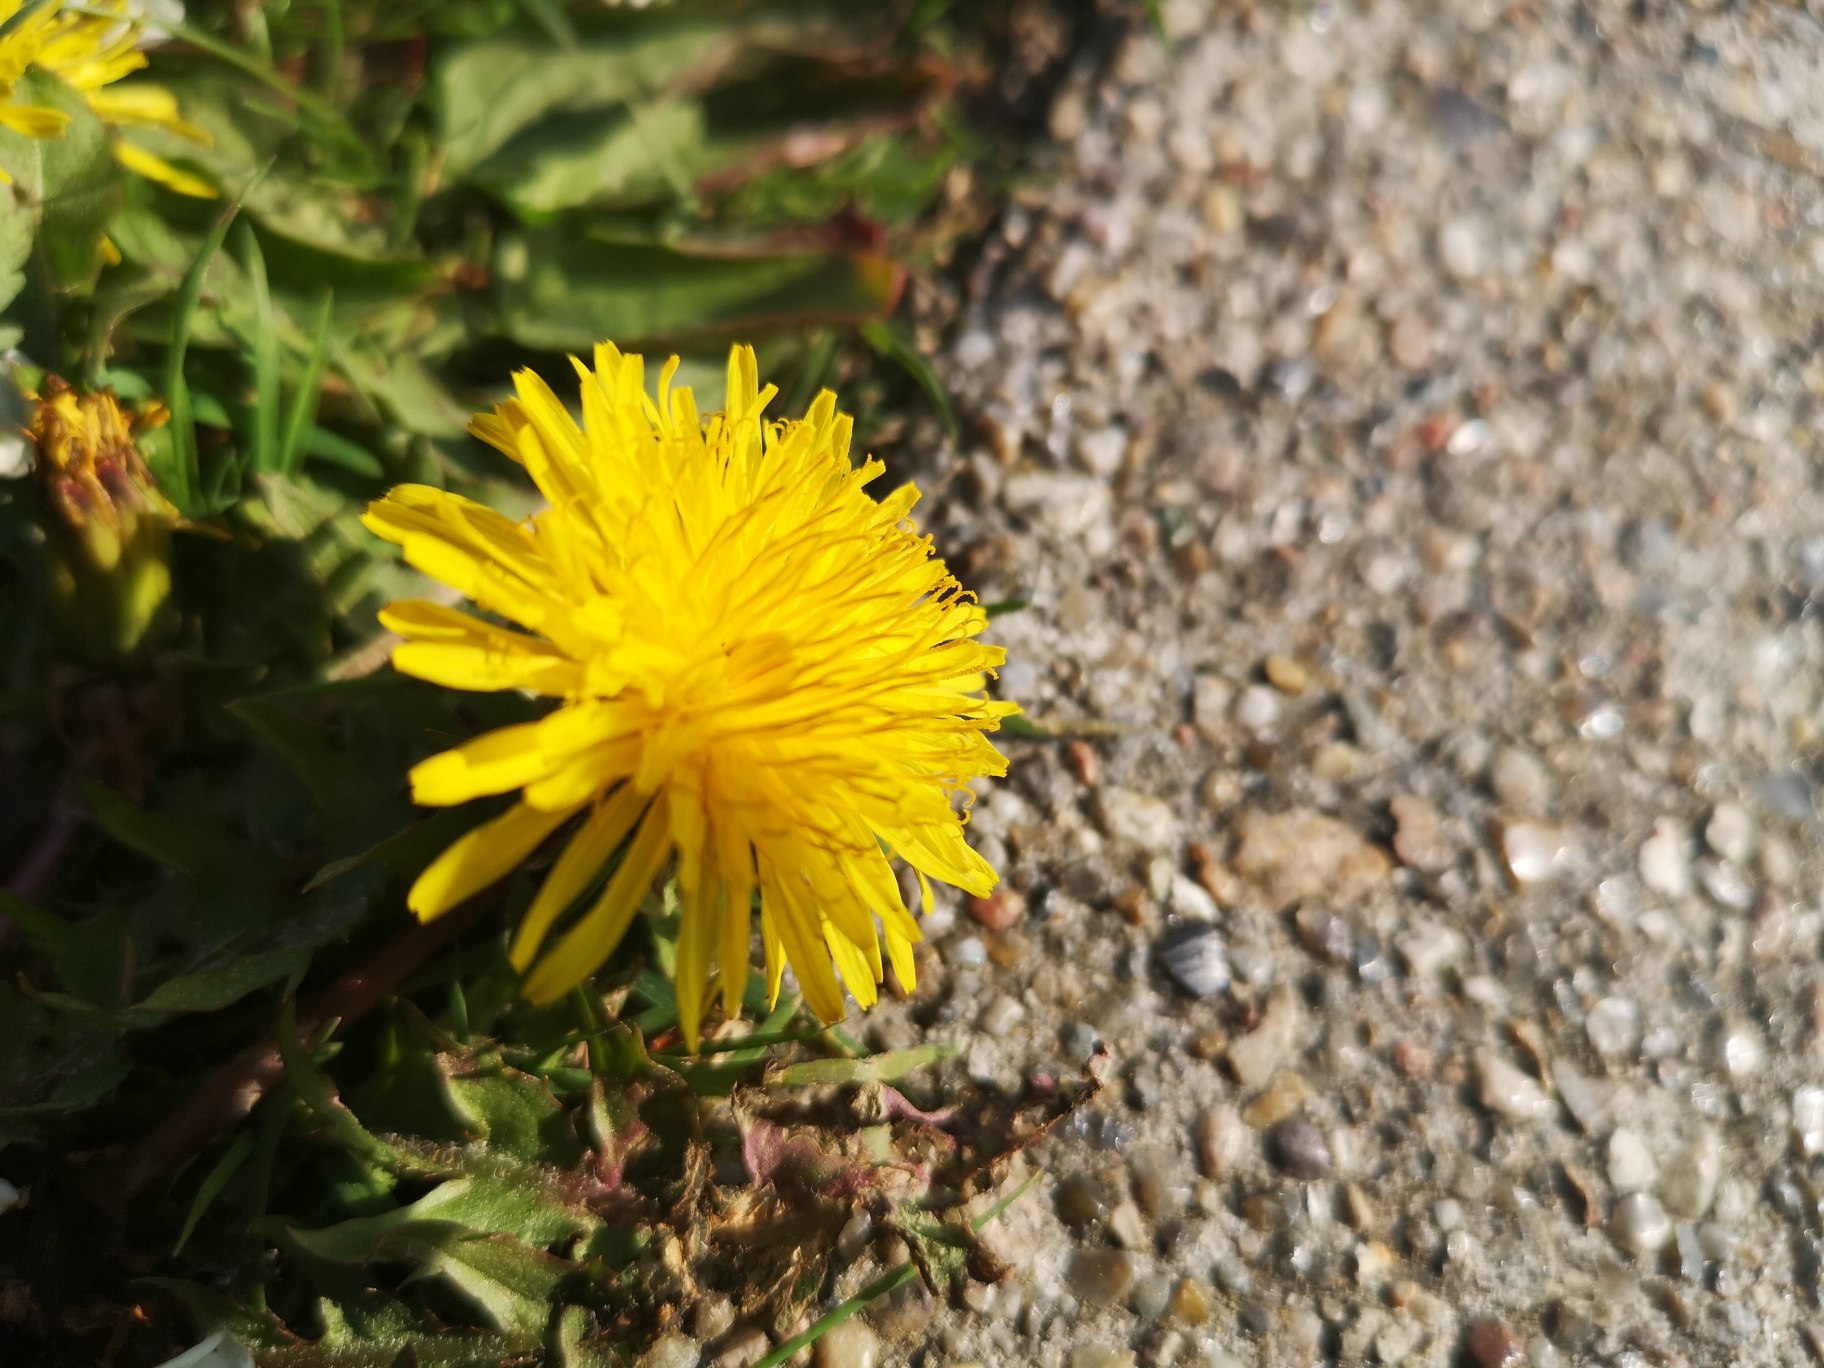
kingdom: Plantae
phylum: Tracheophyta
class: Magnoliopsida
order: Asterales
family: Asteraceae
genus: Taraxacum
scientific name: Taraxacum
